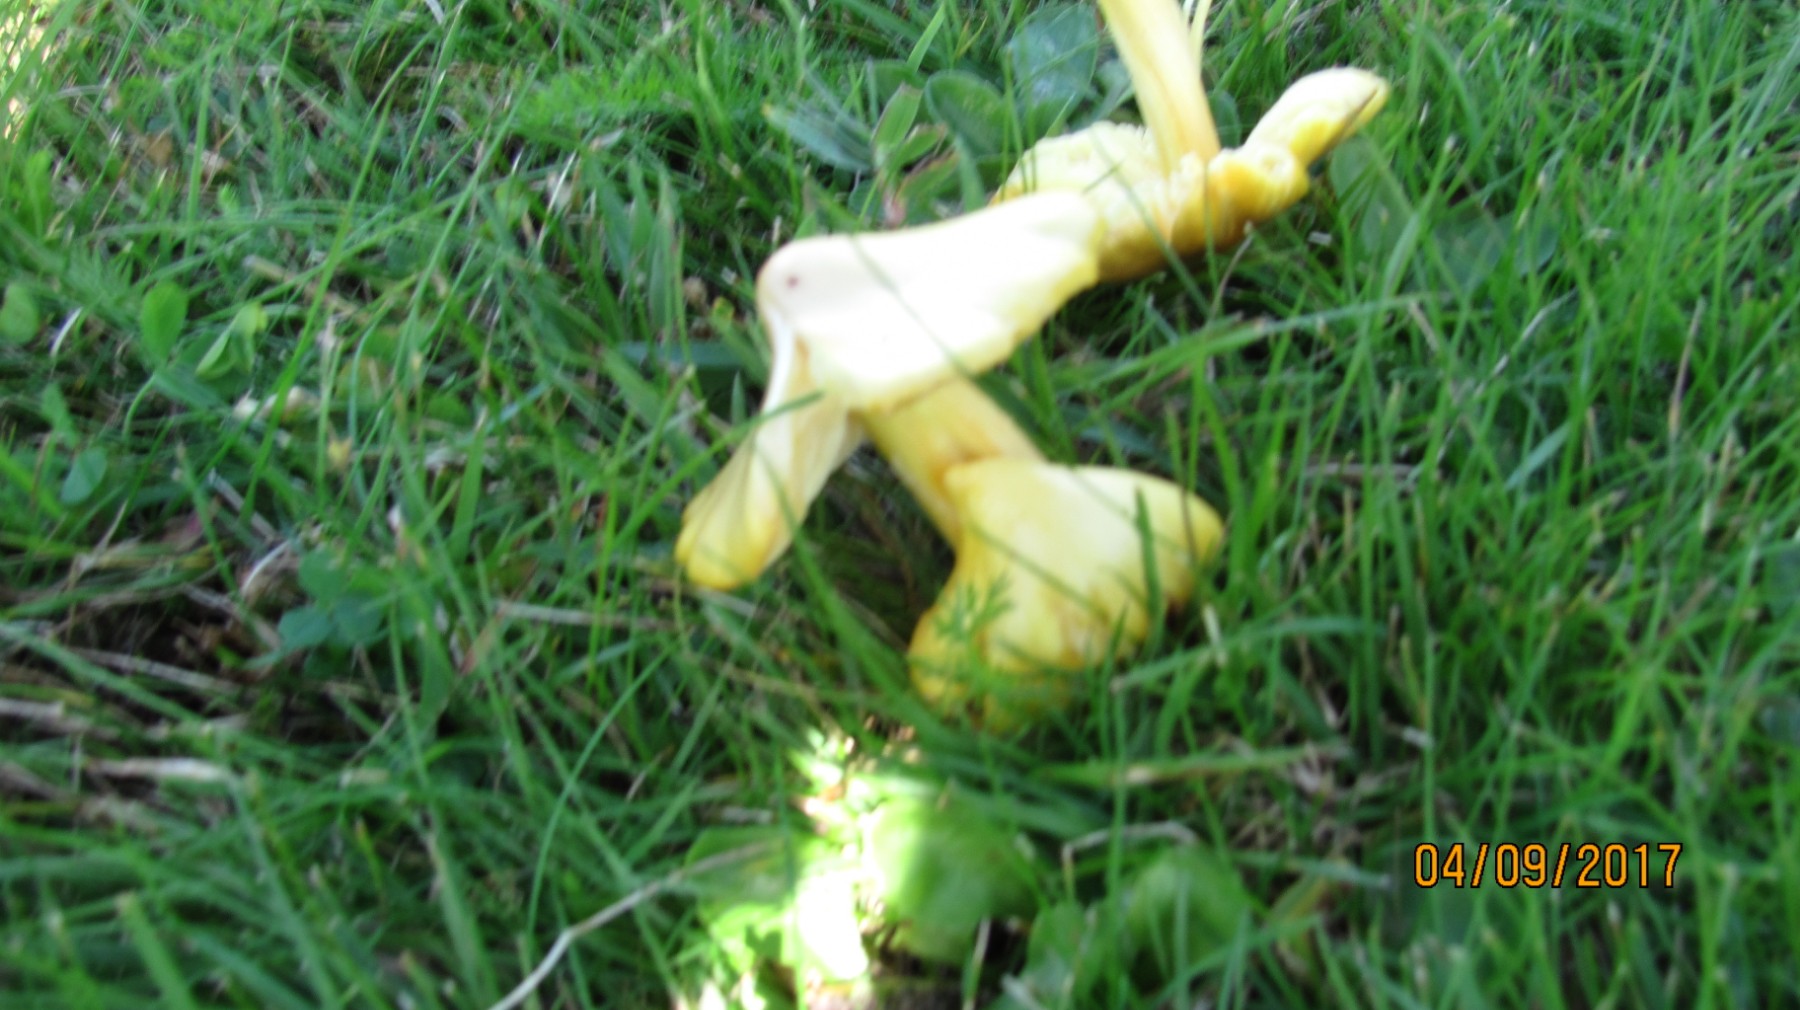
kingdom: Fungi
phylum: Basidiomycota
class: Agaricomycetes
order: Agaricales
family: Hygrophoraceae
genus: Hygrocybe
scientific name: Hygrocybe acutoconica
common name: spidspuklet vokshat
